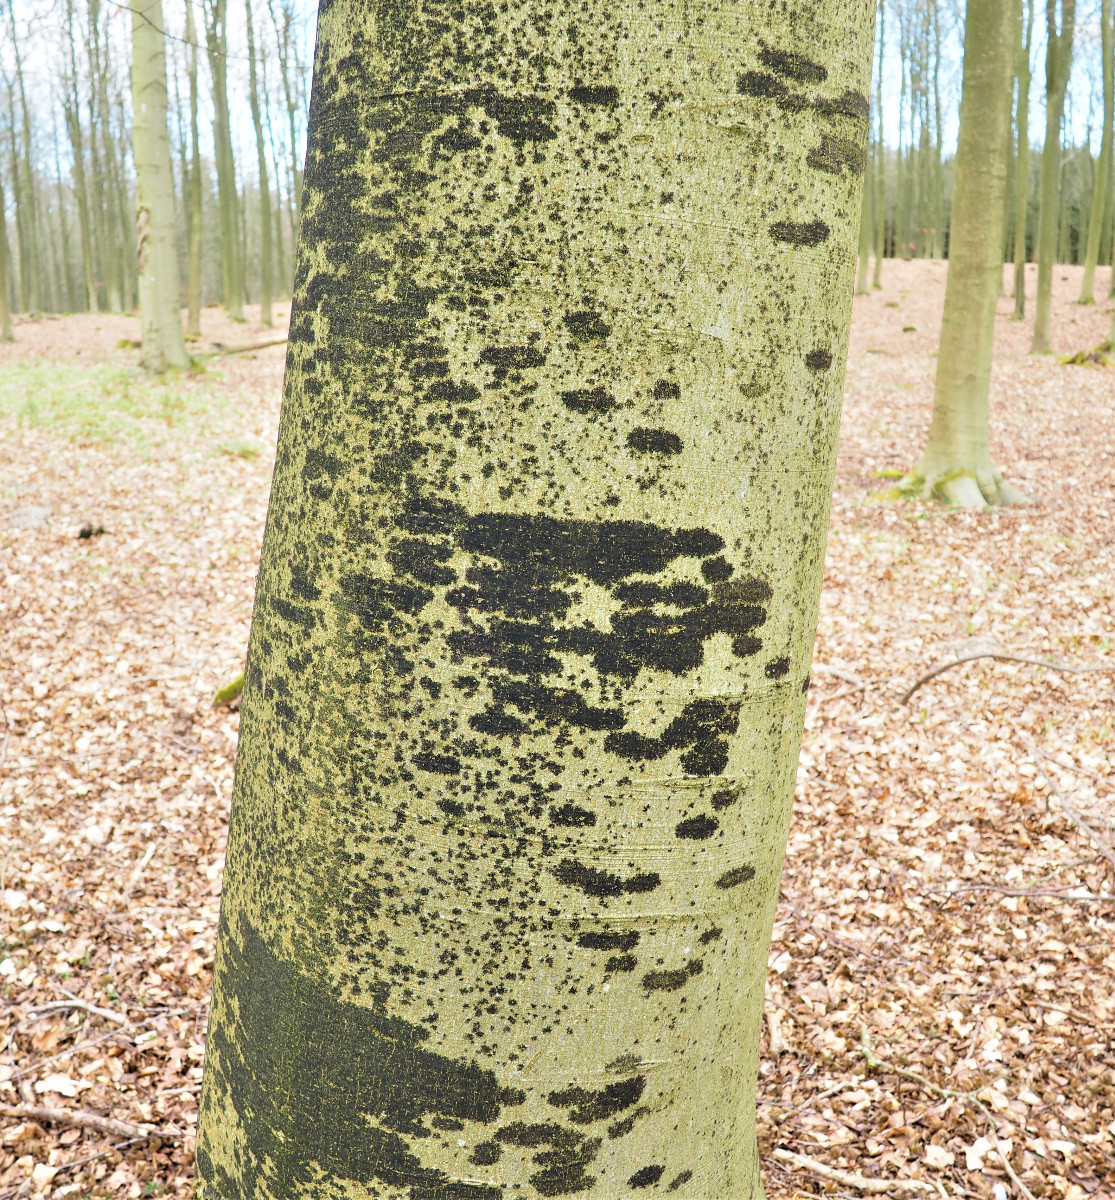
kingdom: Fungi
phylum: Ascomycota
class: Leotiomycetes
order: Rhytismatales
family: Ascodichaenaceae
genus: Ascodichaena
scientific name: Ascodichaena rugosa
